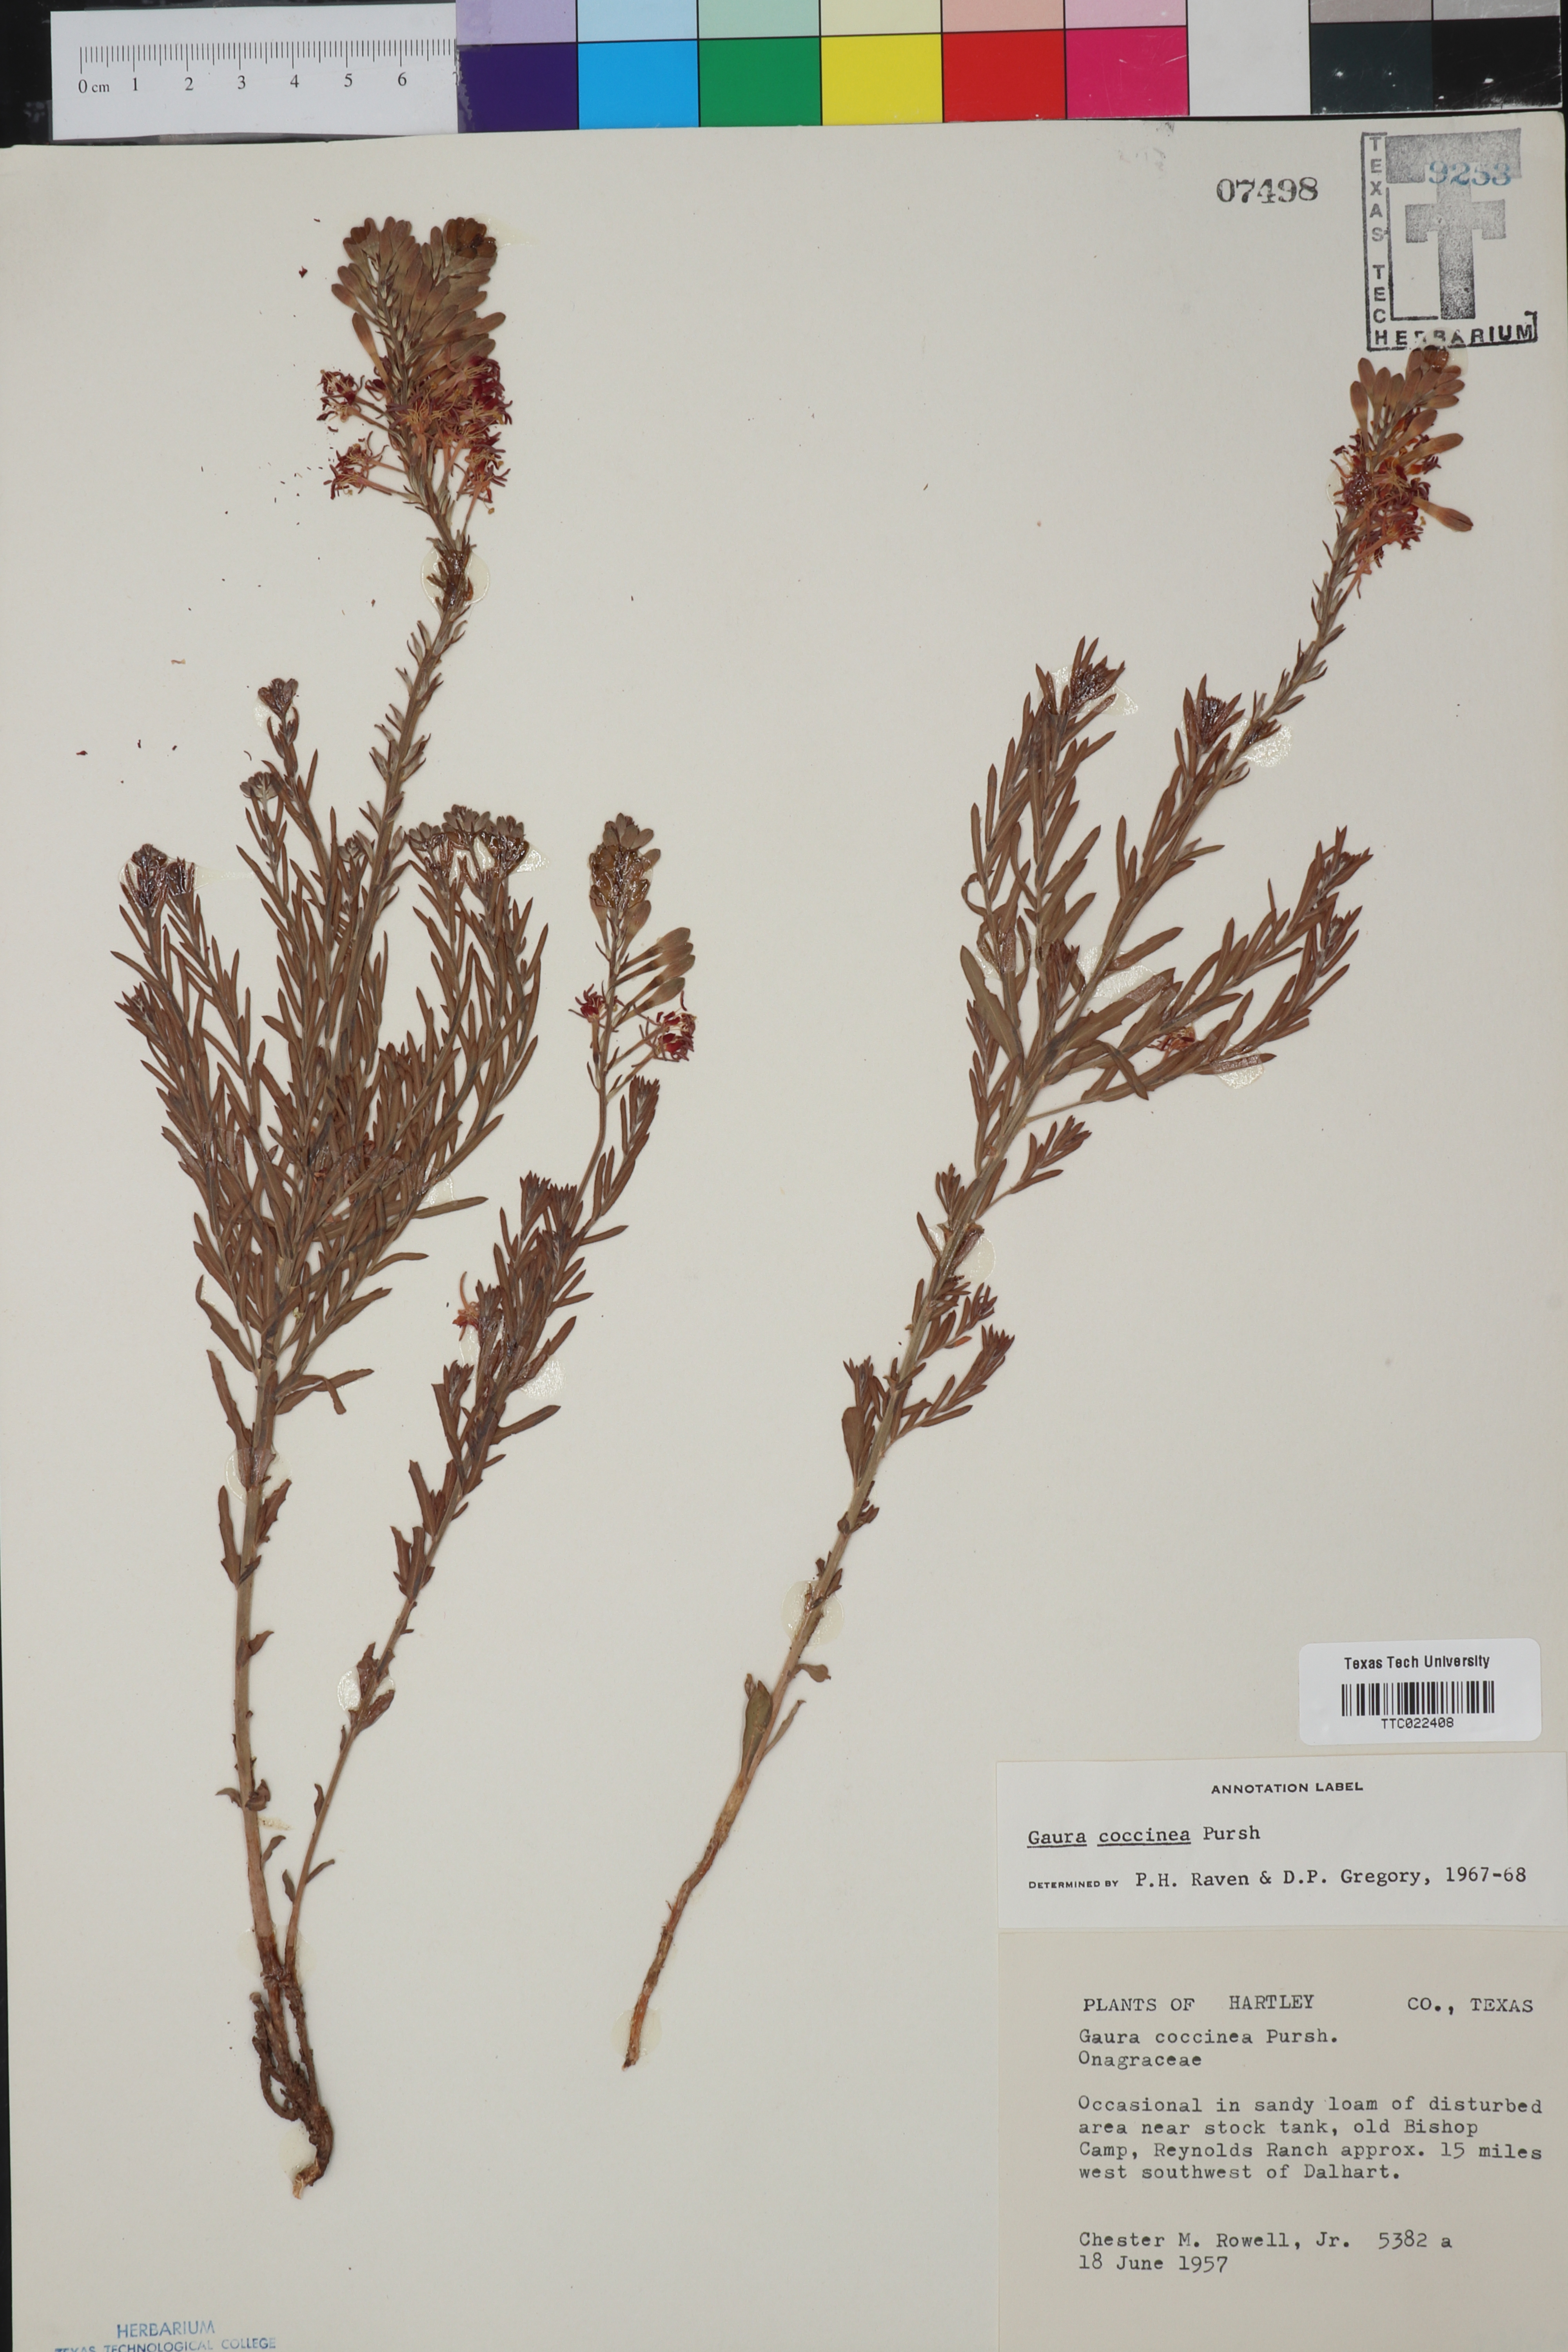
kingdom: Plantae
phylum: Tracheophyta
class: Magnoliopsida
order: Myrtales
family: Onagraceae
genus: Oenothera
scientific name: Oenothera suffrutescens
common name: Scarlet beeblossom
